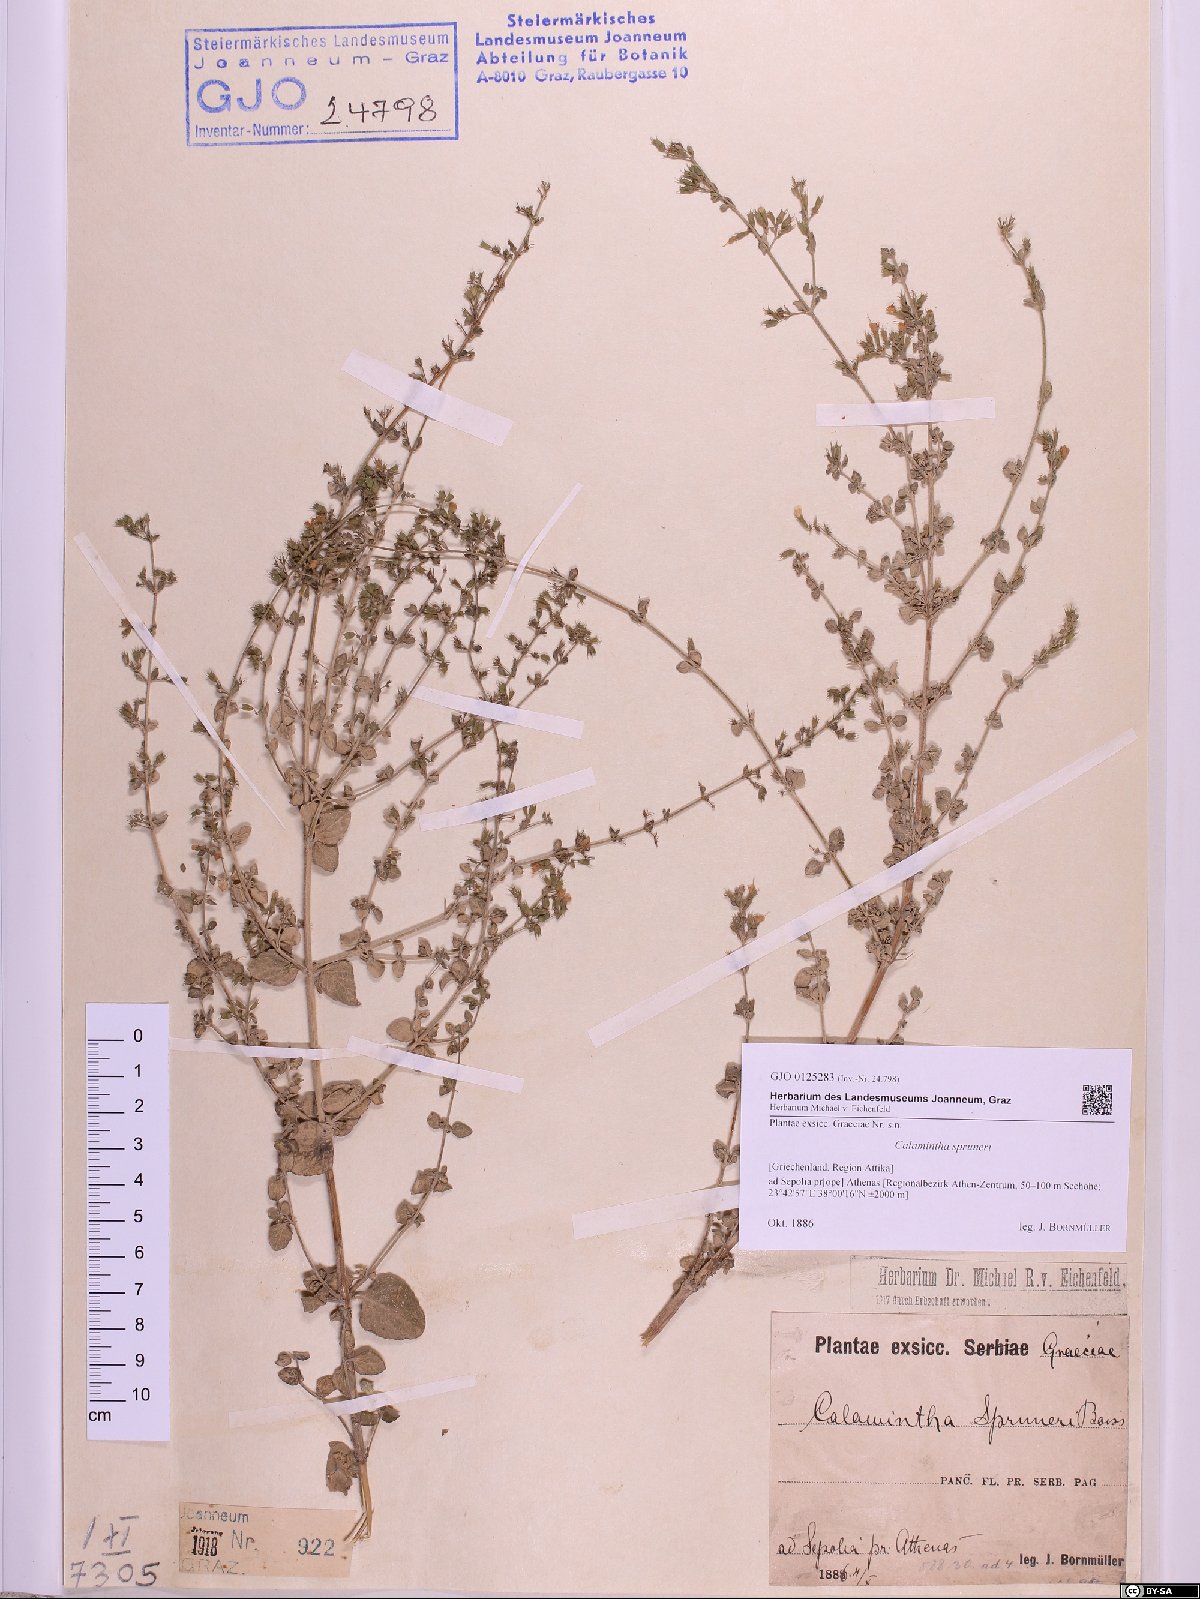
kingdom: Plantae
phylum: Tracheophyta
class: Magnoliopsida
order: Lamiales
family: Lamiaceae
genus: Clinopodium
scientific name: Clinopodium nepeta
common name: Lesser calamint
